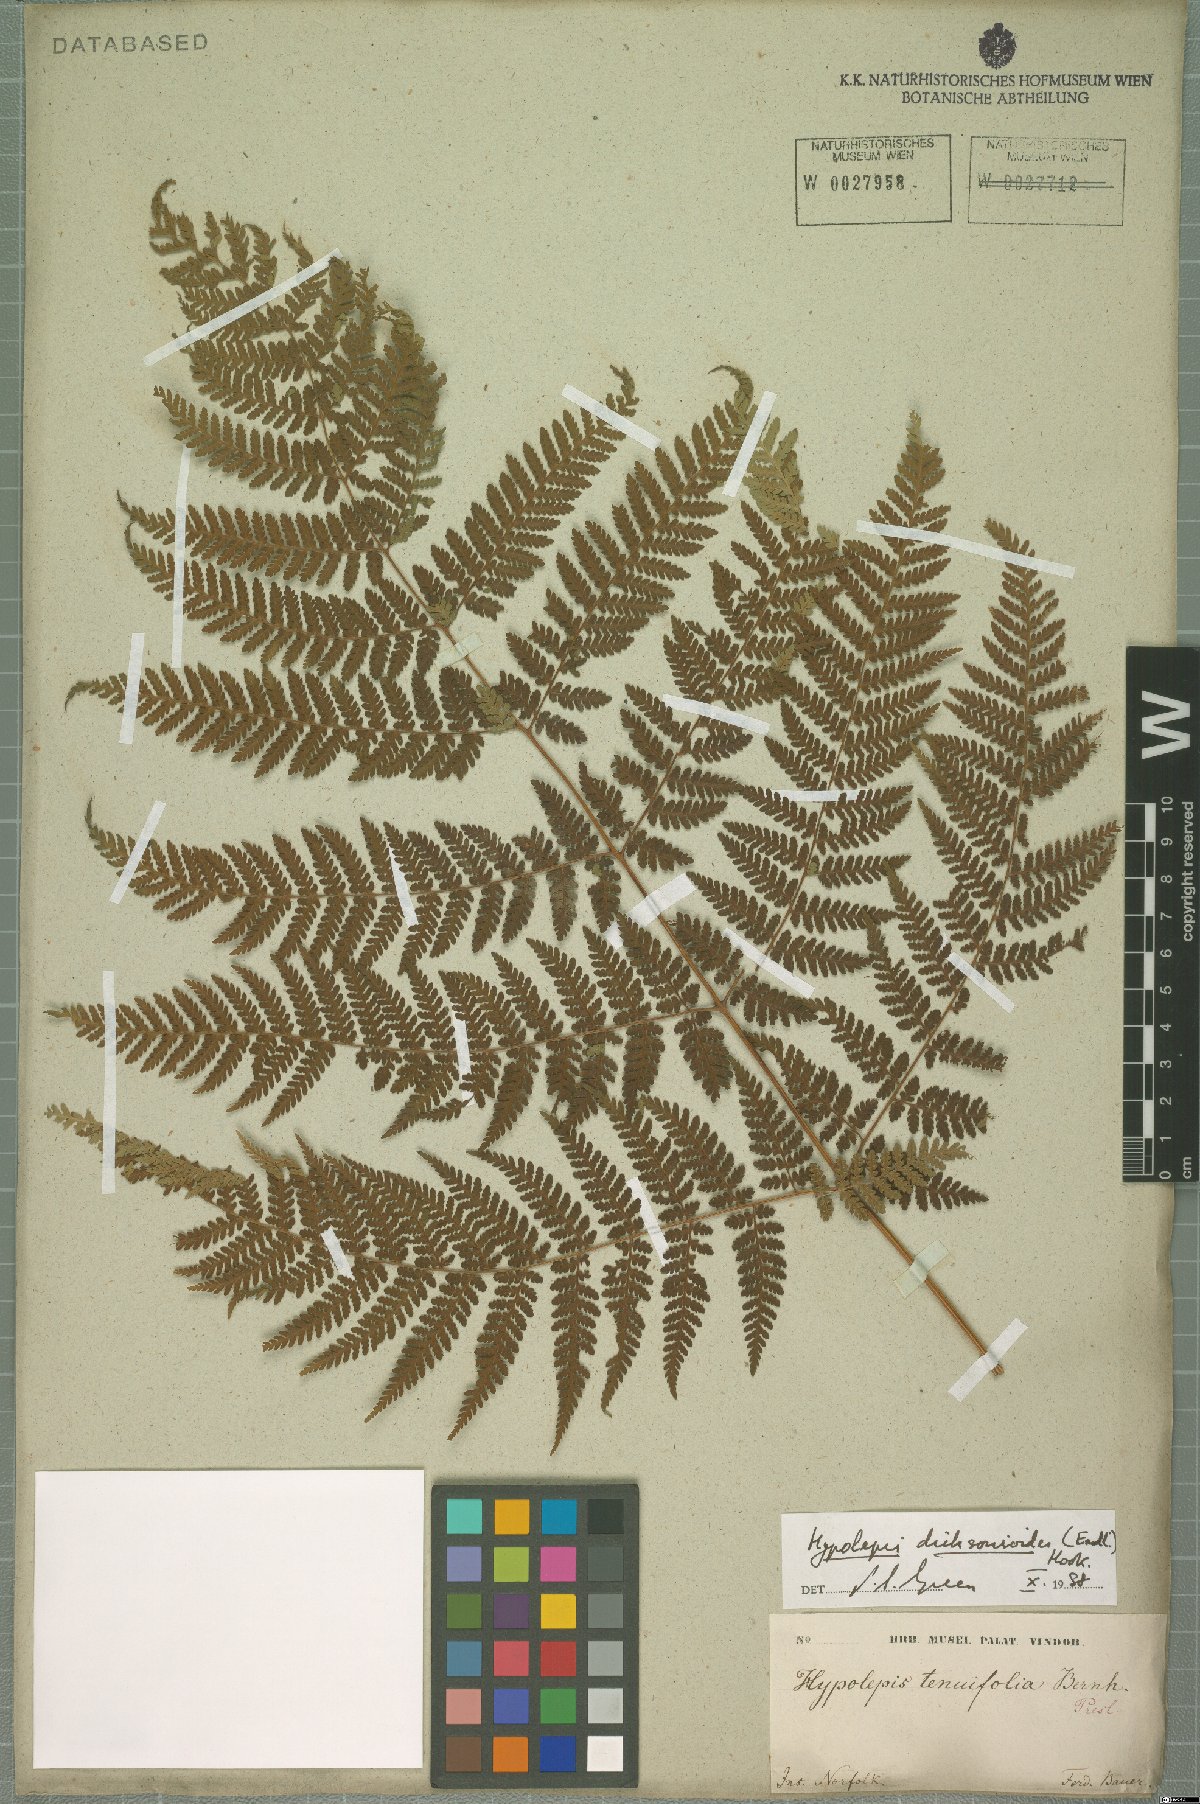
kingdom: Plantae
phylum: Tracheophyta
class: Polypodiopsida
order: Polypodiales
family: Dennstaedtiaceae
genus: Hypolepis
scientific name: Hypolepis dicksonioides
